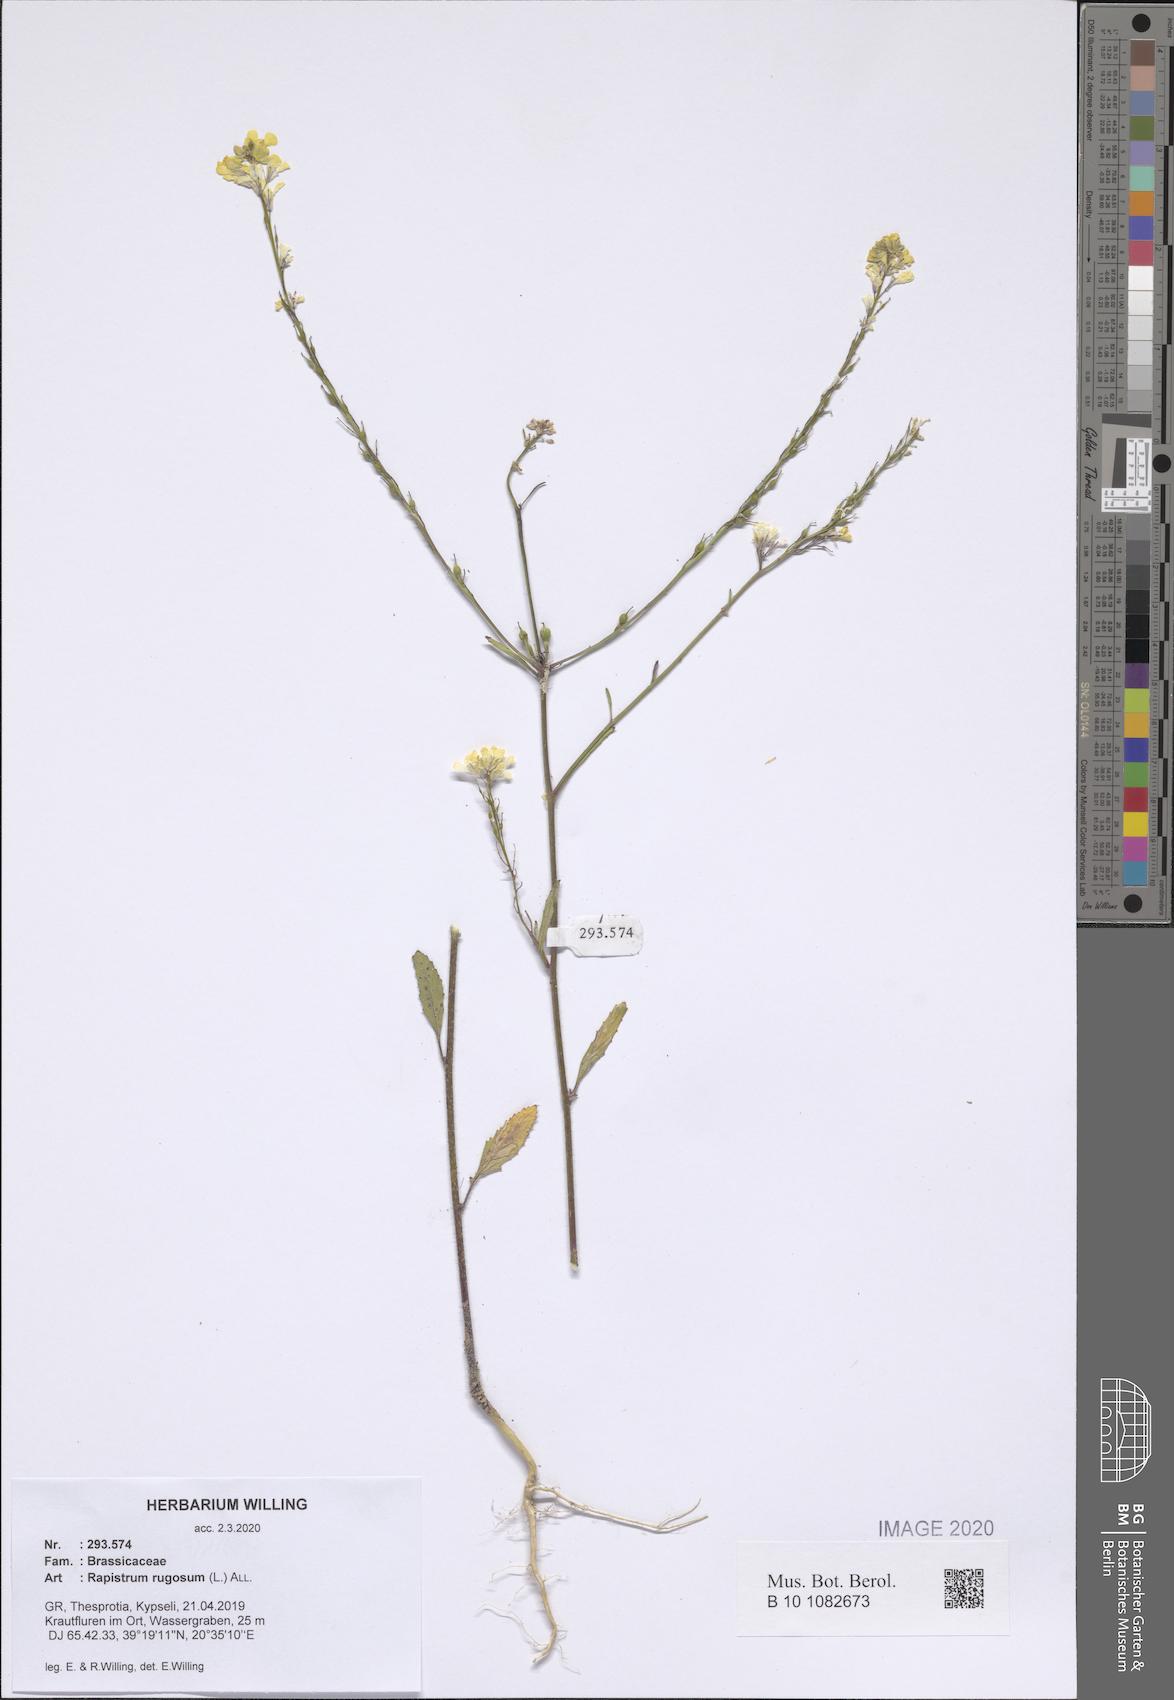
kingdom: Plantae
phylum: Tracheophyta
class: Magnoliopsida
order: Brassicales
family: Brassicaceae
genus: Rapistrum
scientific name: Rapistrum rugosum
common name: Annual bastardcabbage
